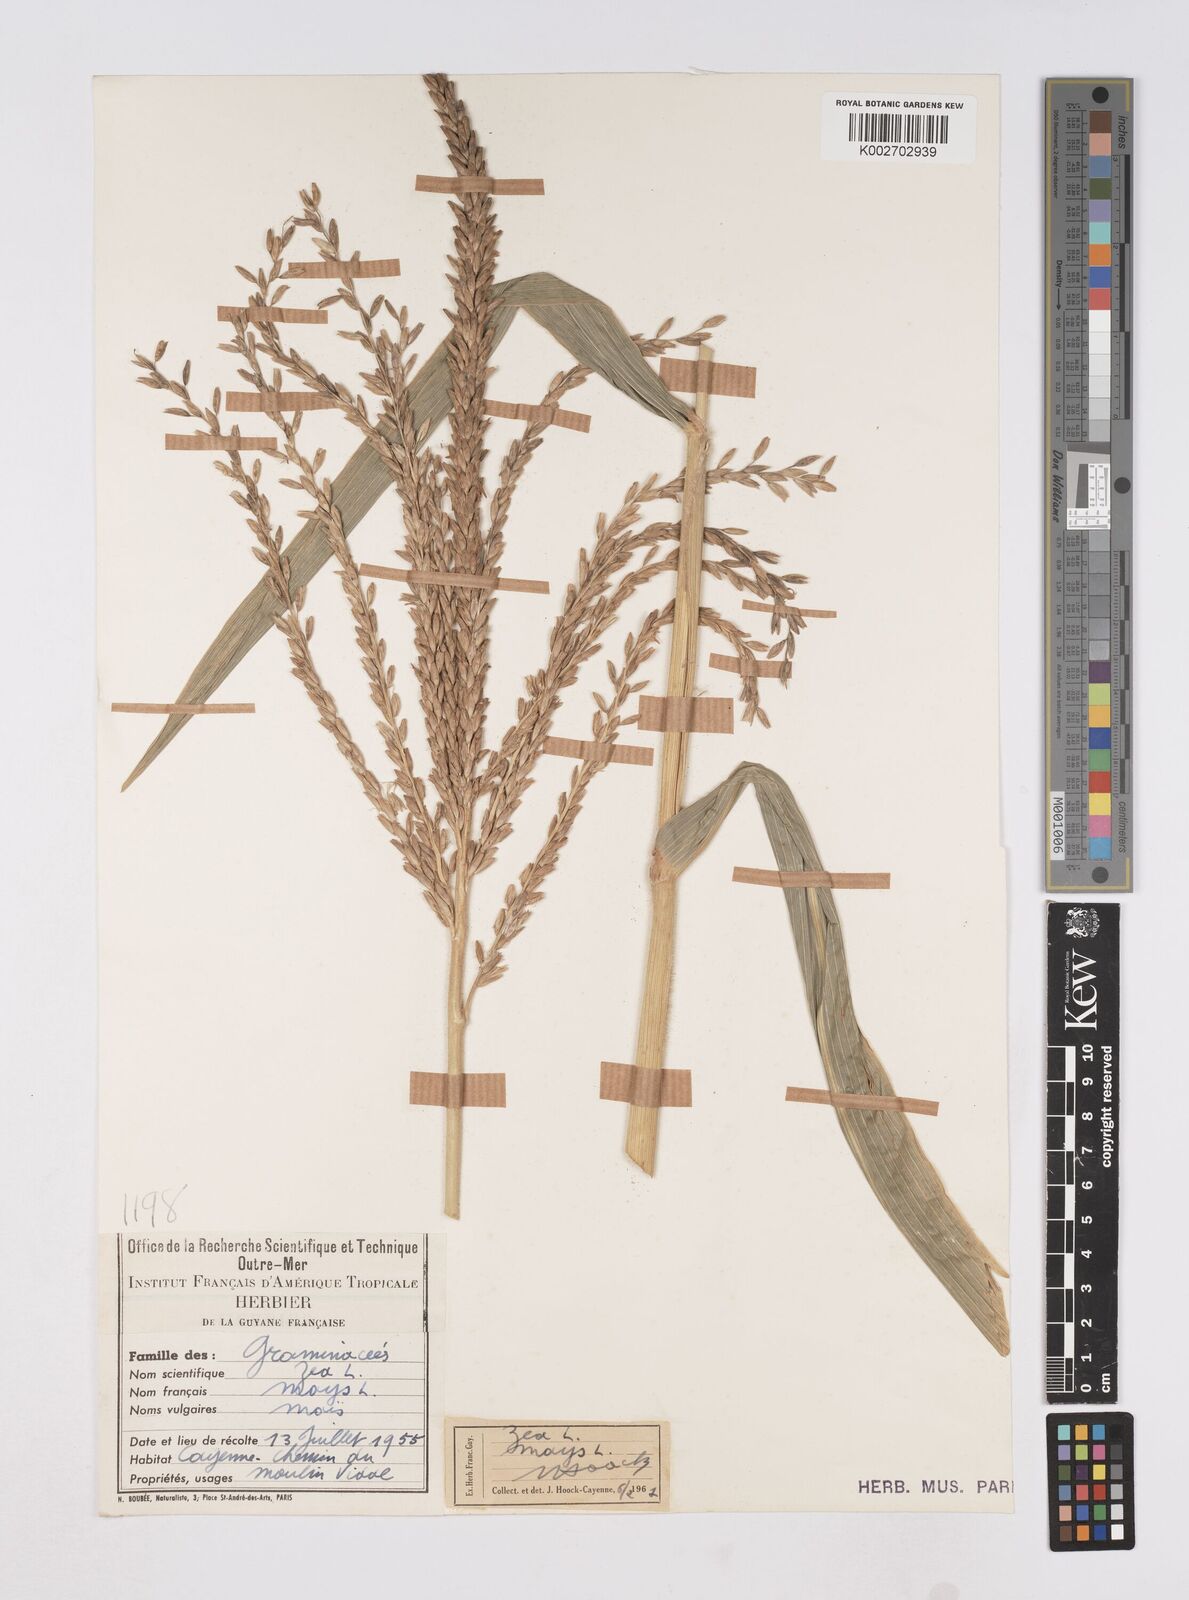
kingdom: Plantae
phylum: Tracheophyta
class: Liliopsida
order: Poales
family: Poaceae
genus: Zea
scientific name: Zea mays
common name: Maize
